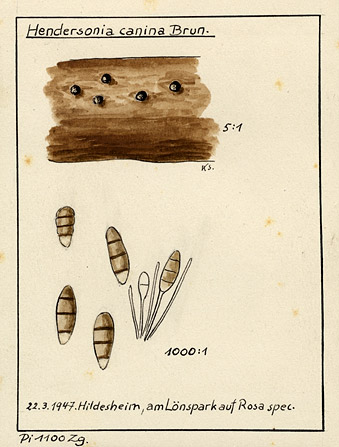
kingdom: Plantae
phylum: Tracheophyta
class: Magnoliopsida
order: Rosales
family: Rosaceae
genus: Rosa
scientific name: Rosa
